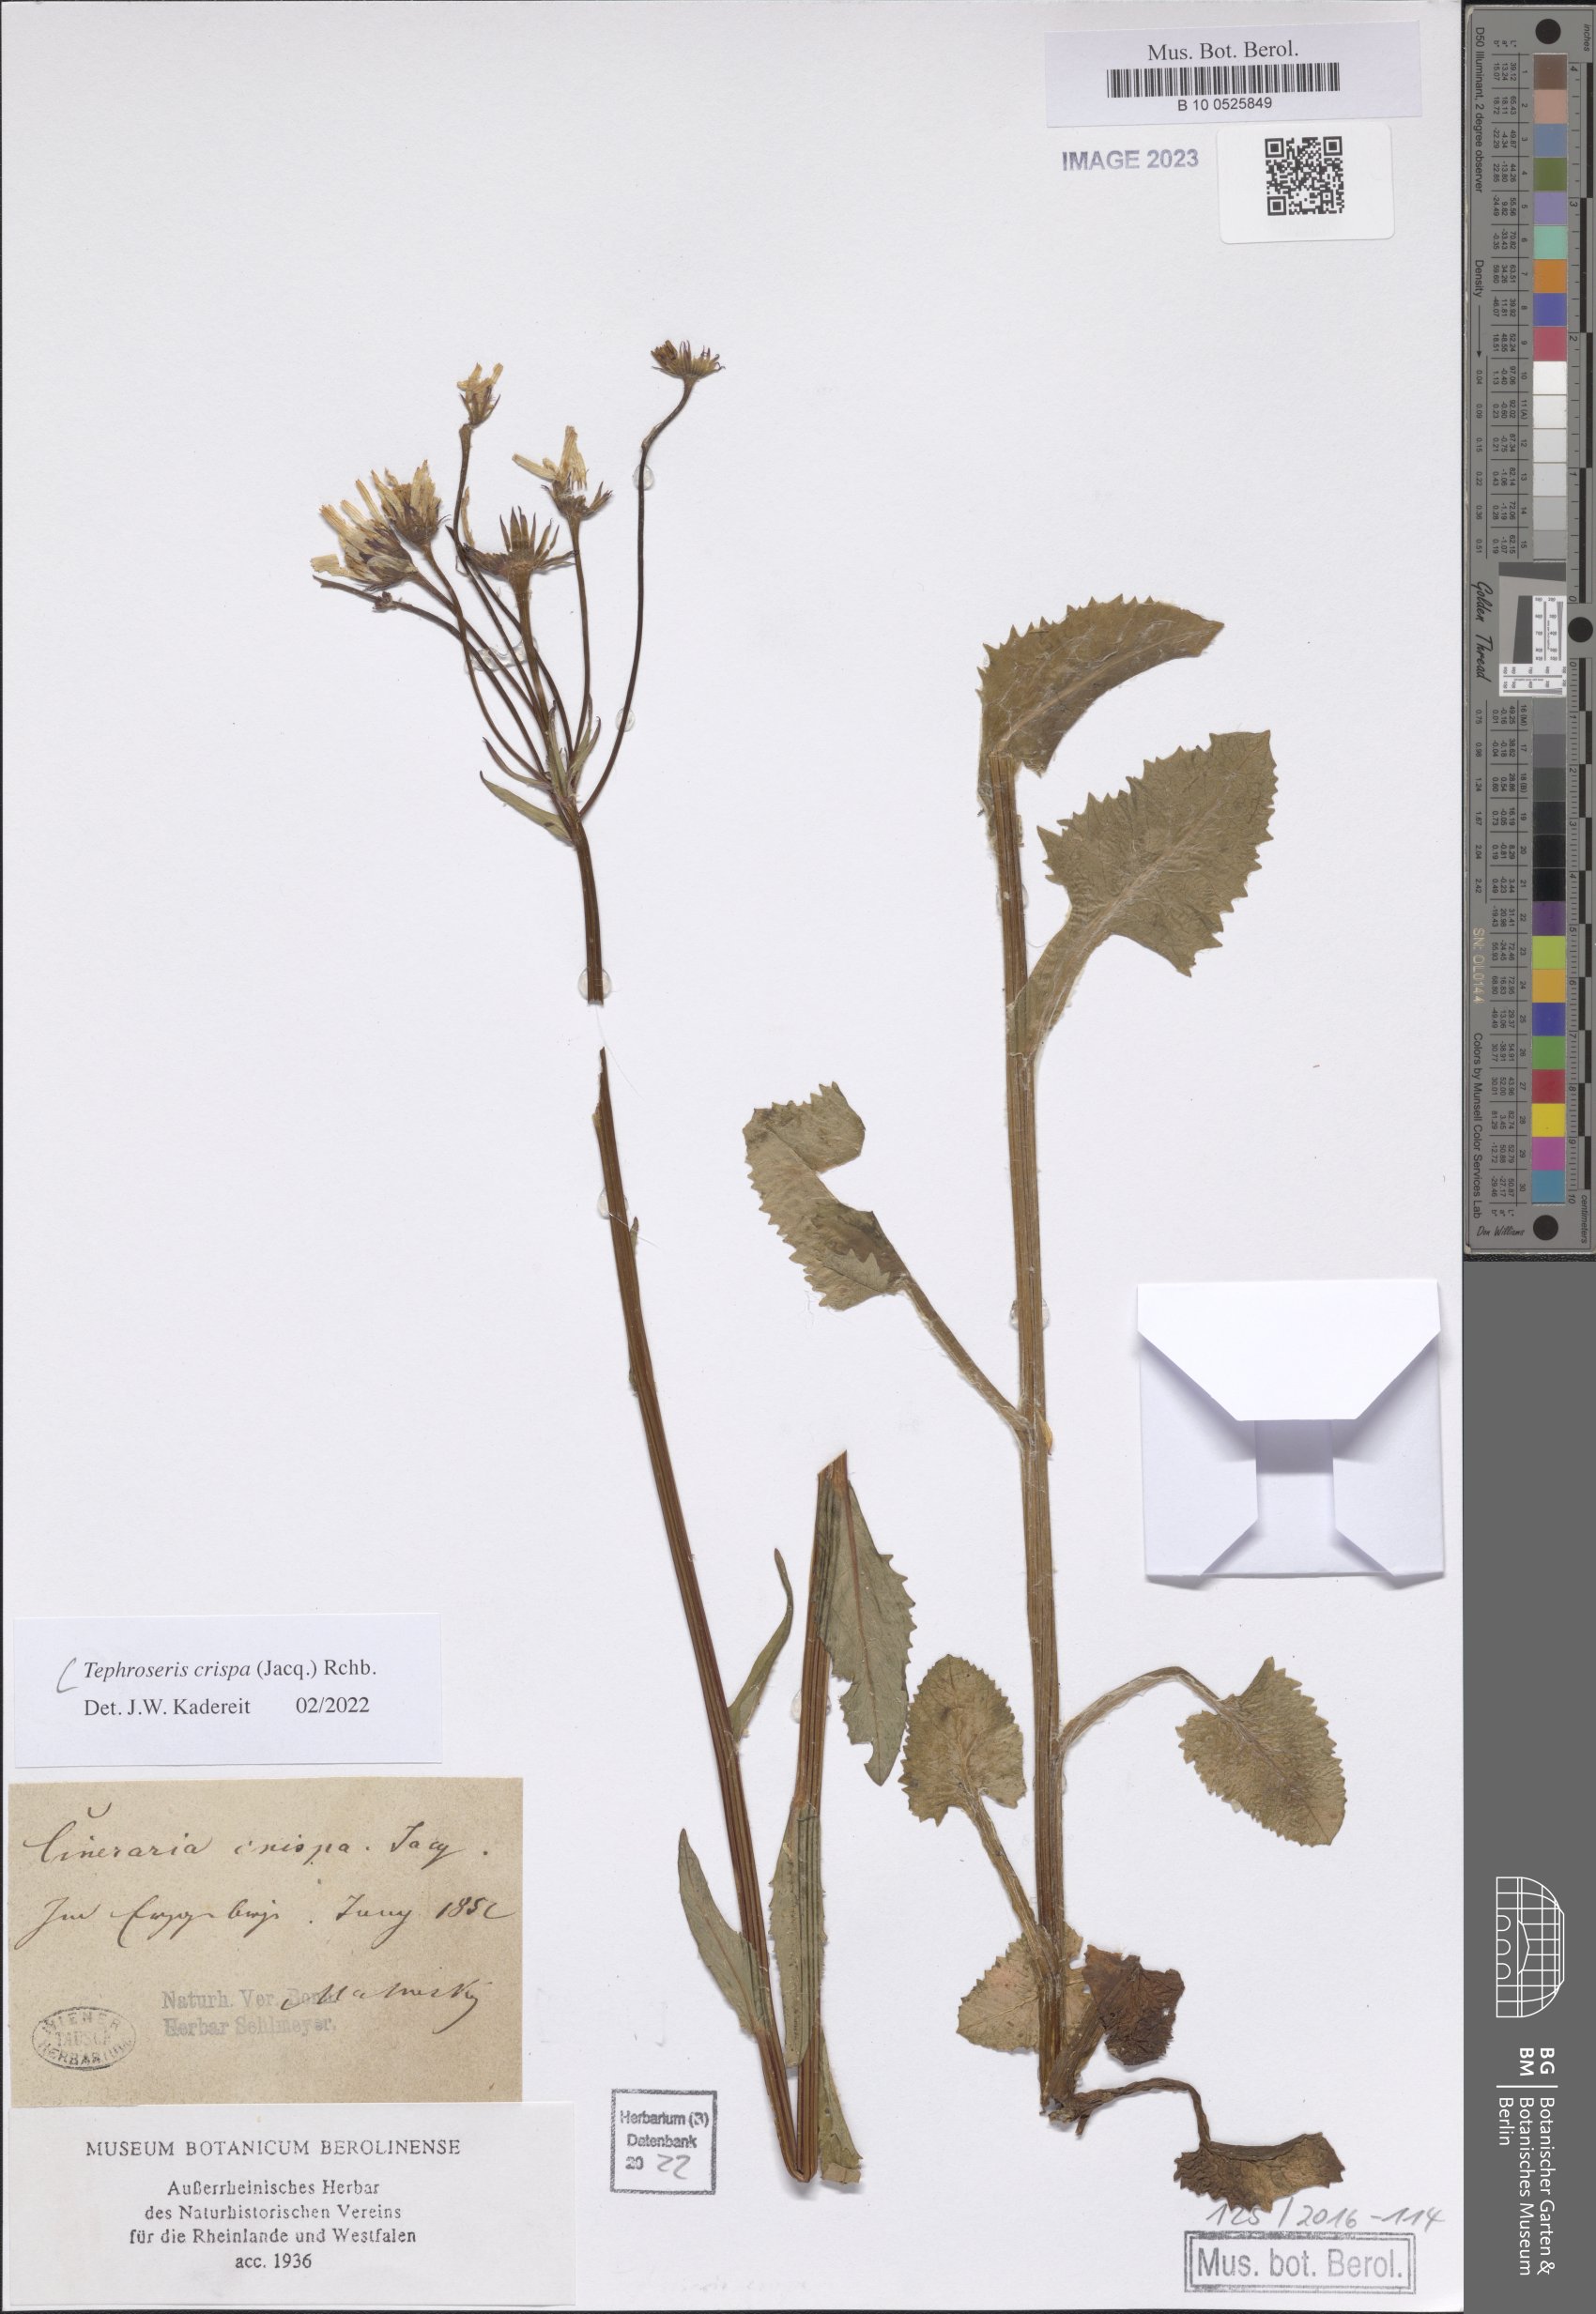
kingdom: Plantae
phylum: Tracheophyta
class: Magnoliopsida
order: Asterales
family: Asteraceae
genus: Tephroseris
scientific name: Tephroseris crispa
